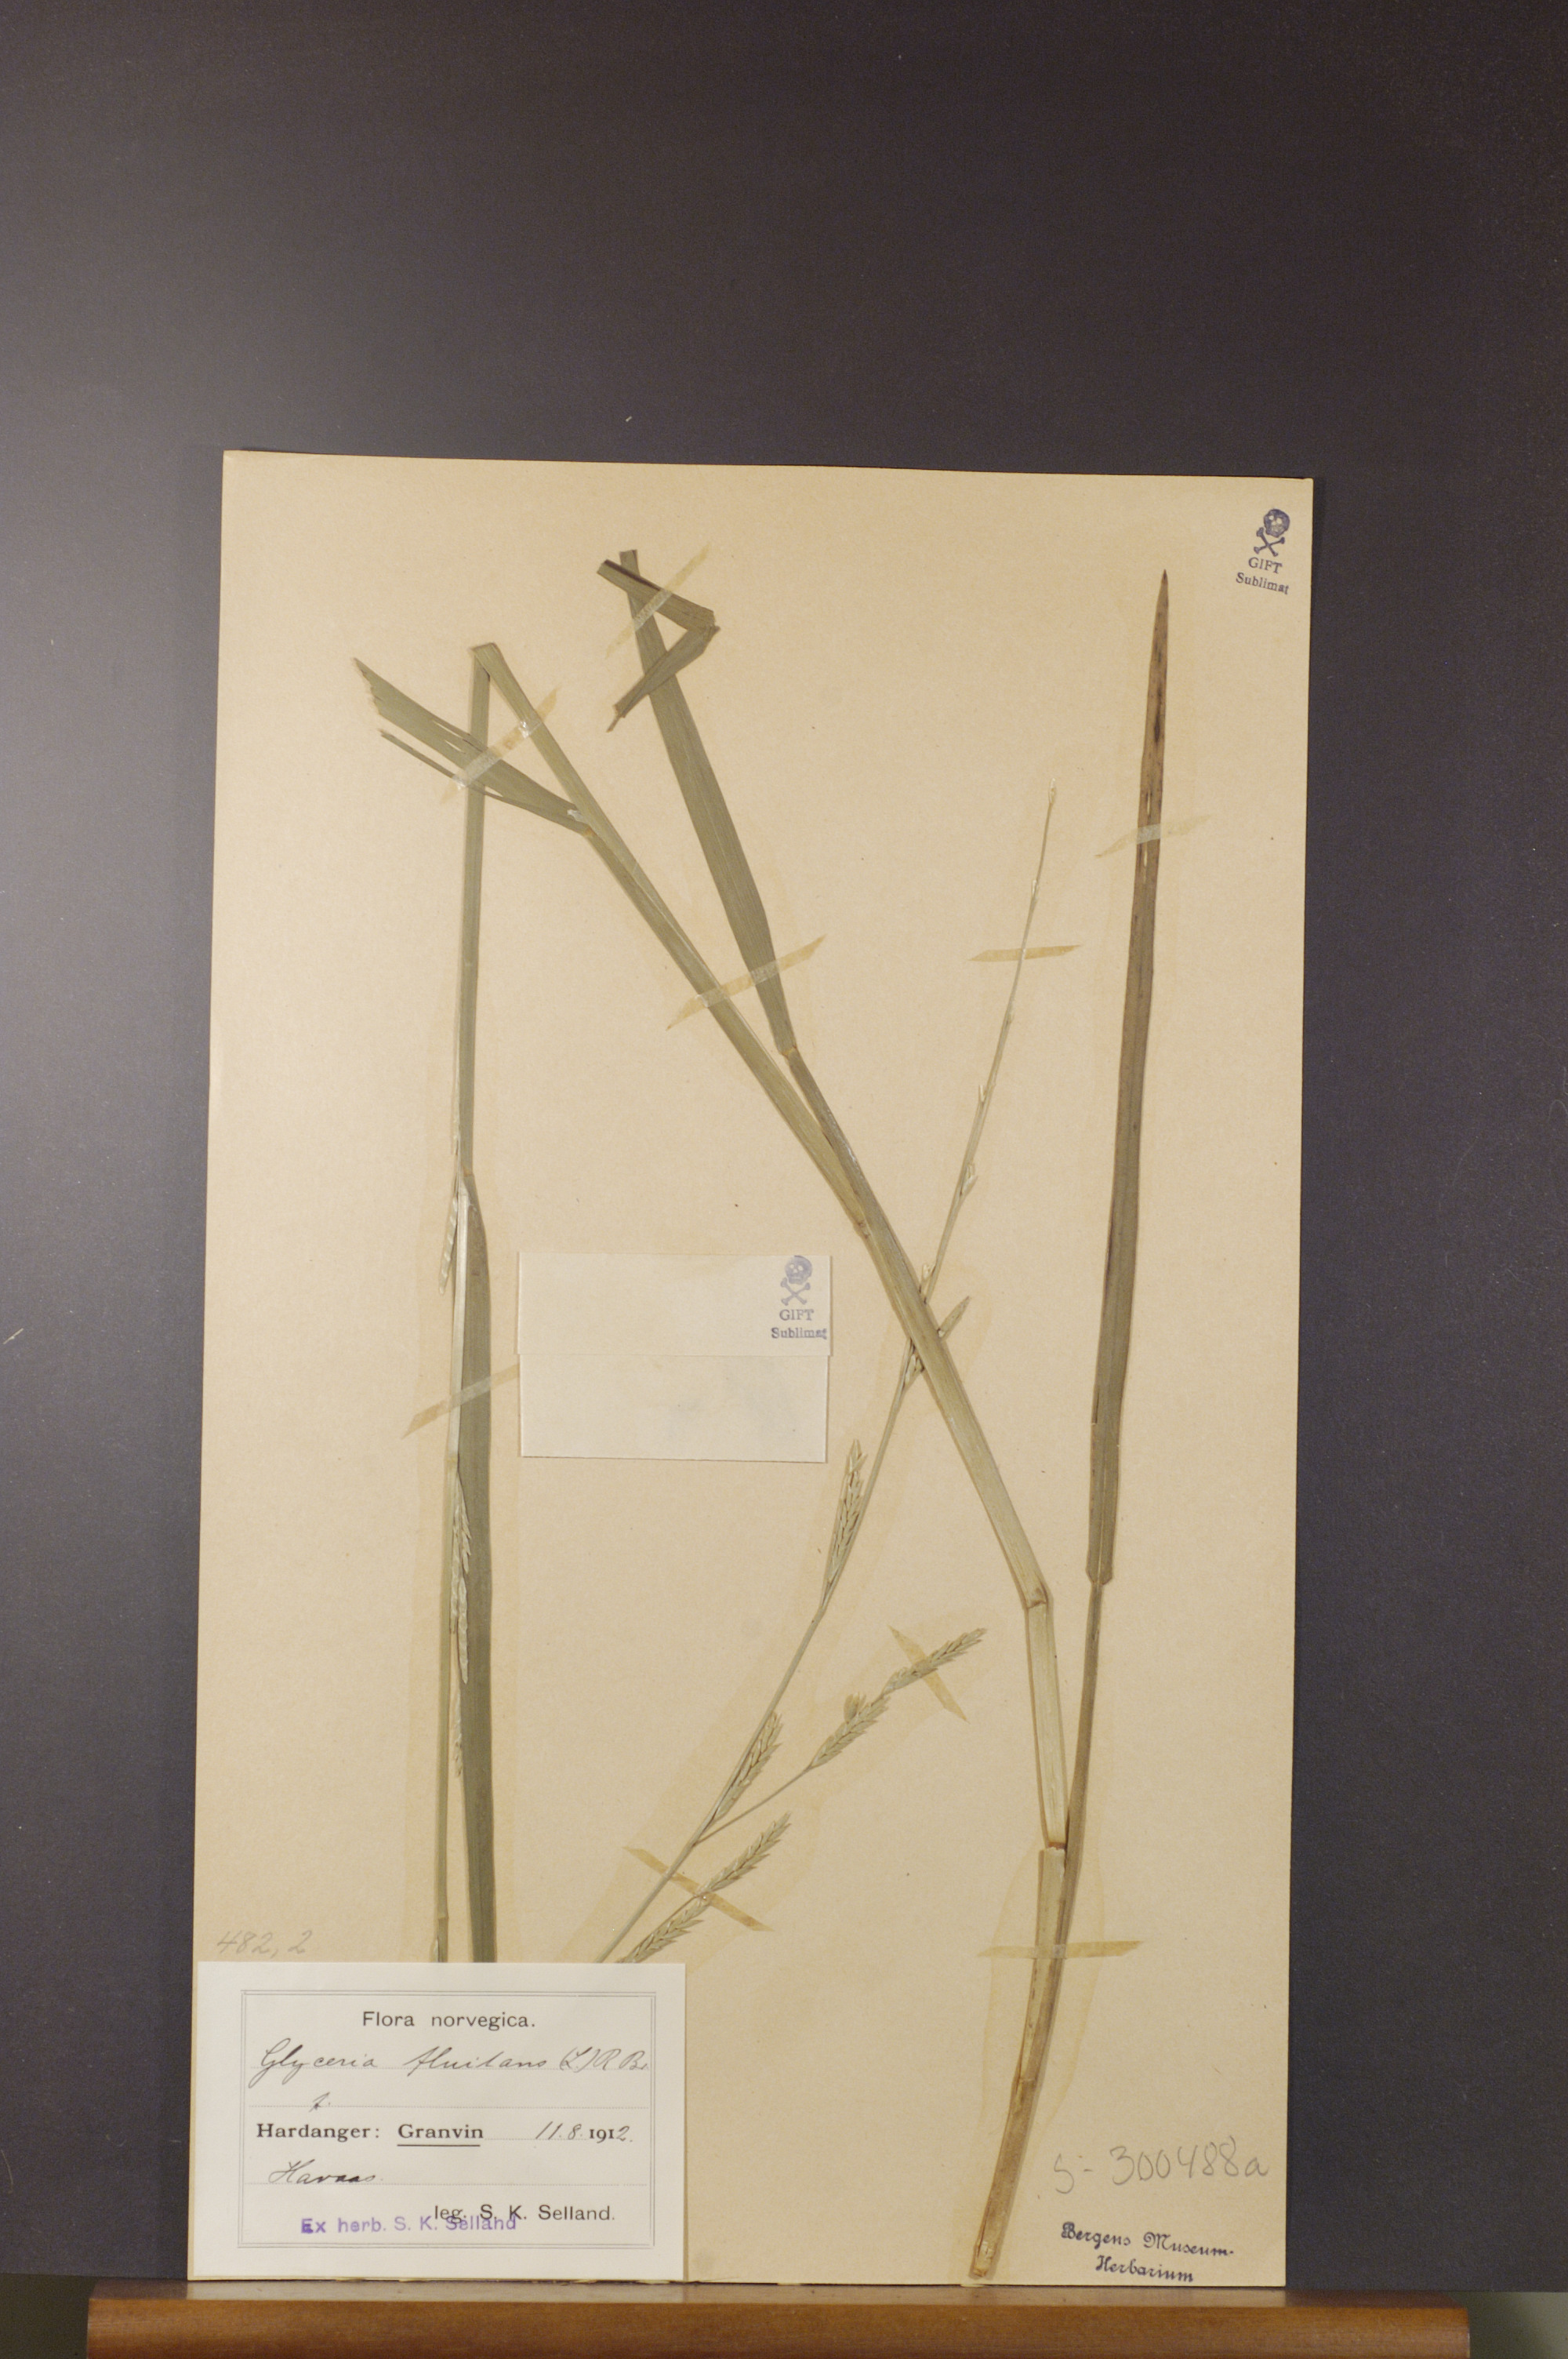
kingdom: Plantae
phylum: Tracheophyta
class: Liliopsida
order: Poales
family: Poaceae
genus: Glyceria
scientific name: Glyceria fluitans
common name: Floating sweet-grass
